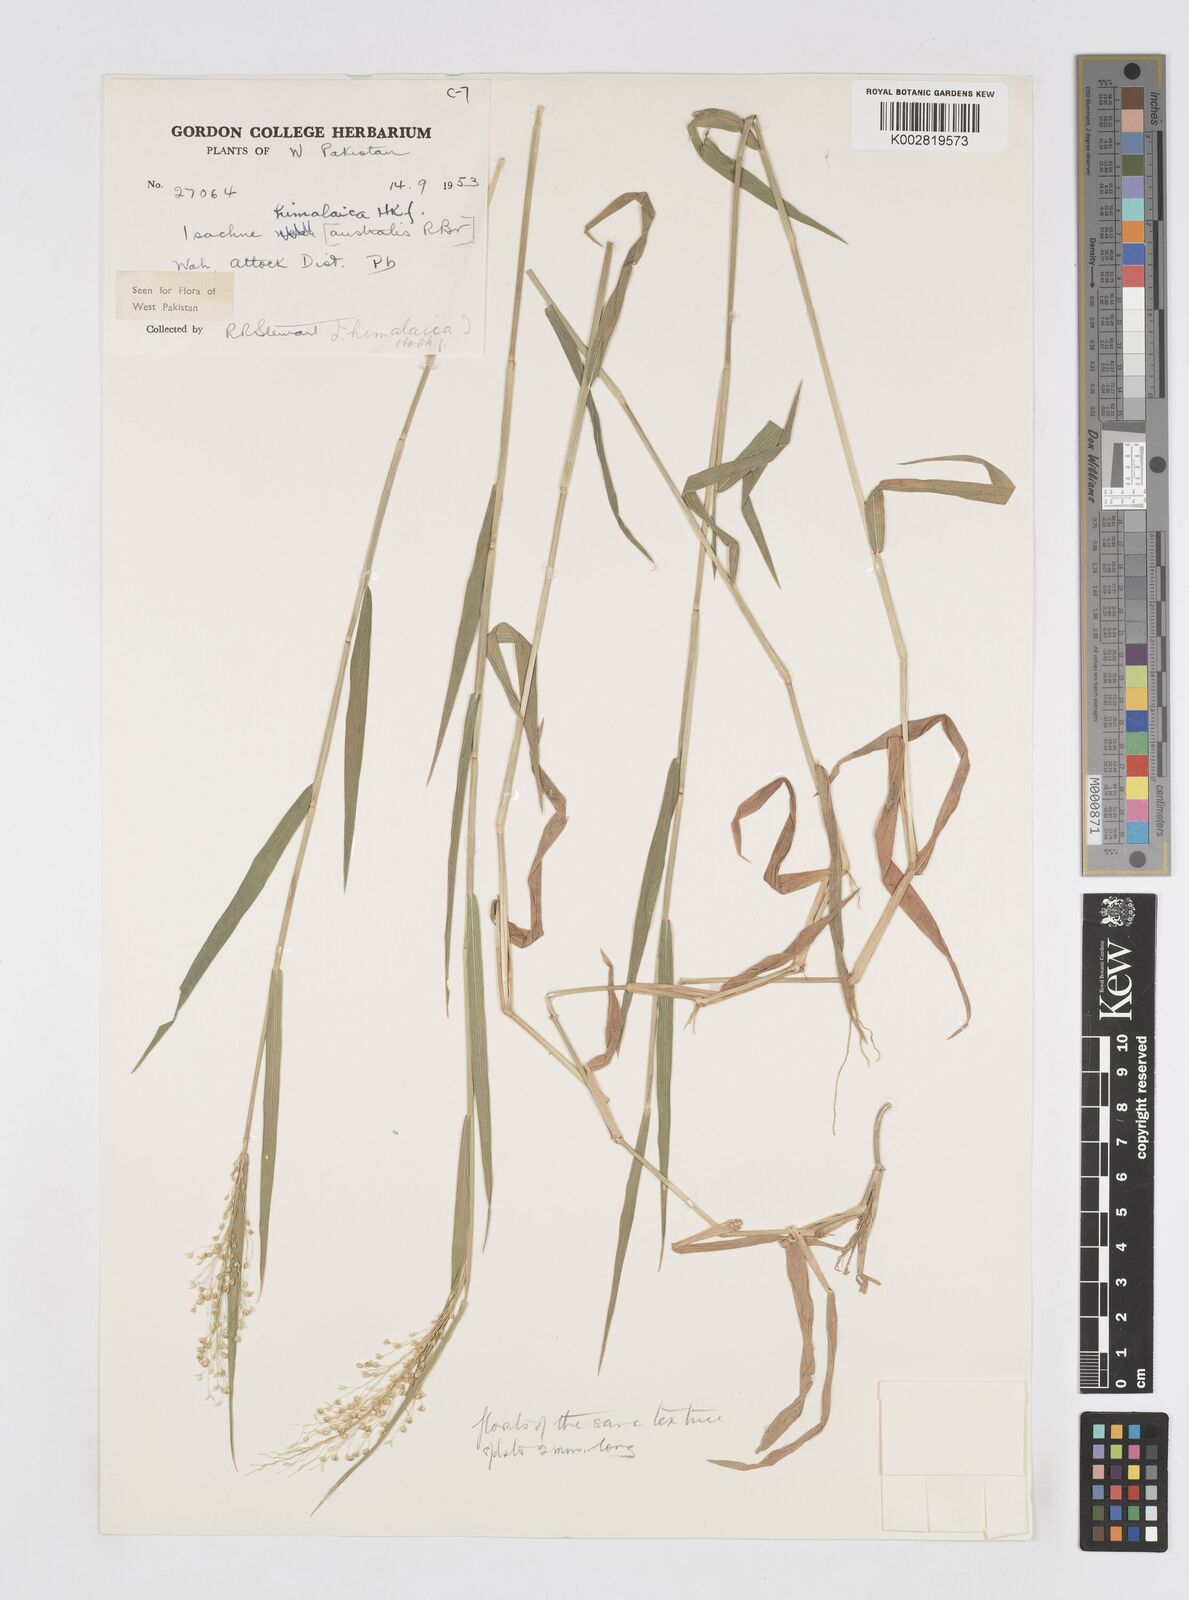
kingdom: Plantae
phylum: Tracheophyta
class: Liliopsida
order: Poales
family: Poaceae
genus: Isachne
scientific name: Isachne himalaica
